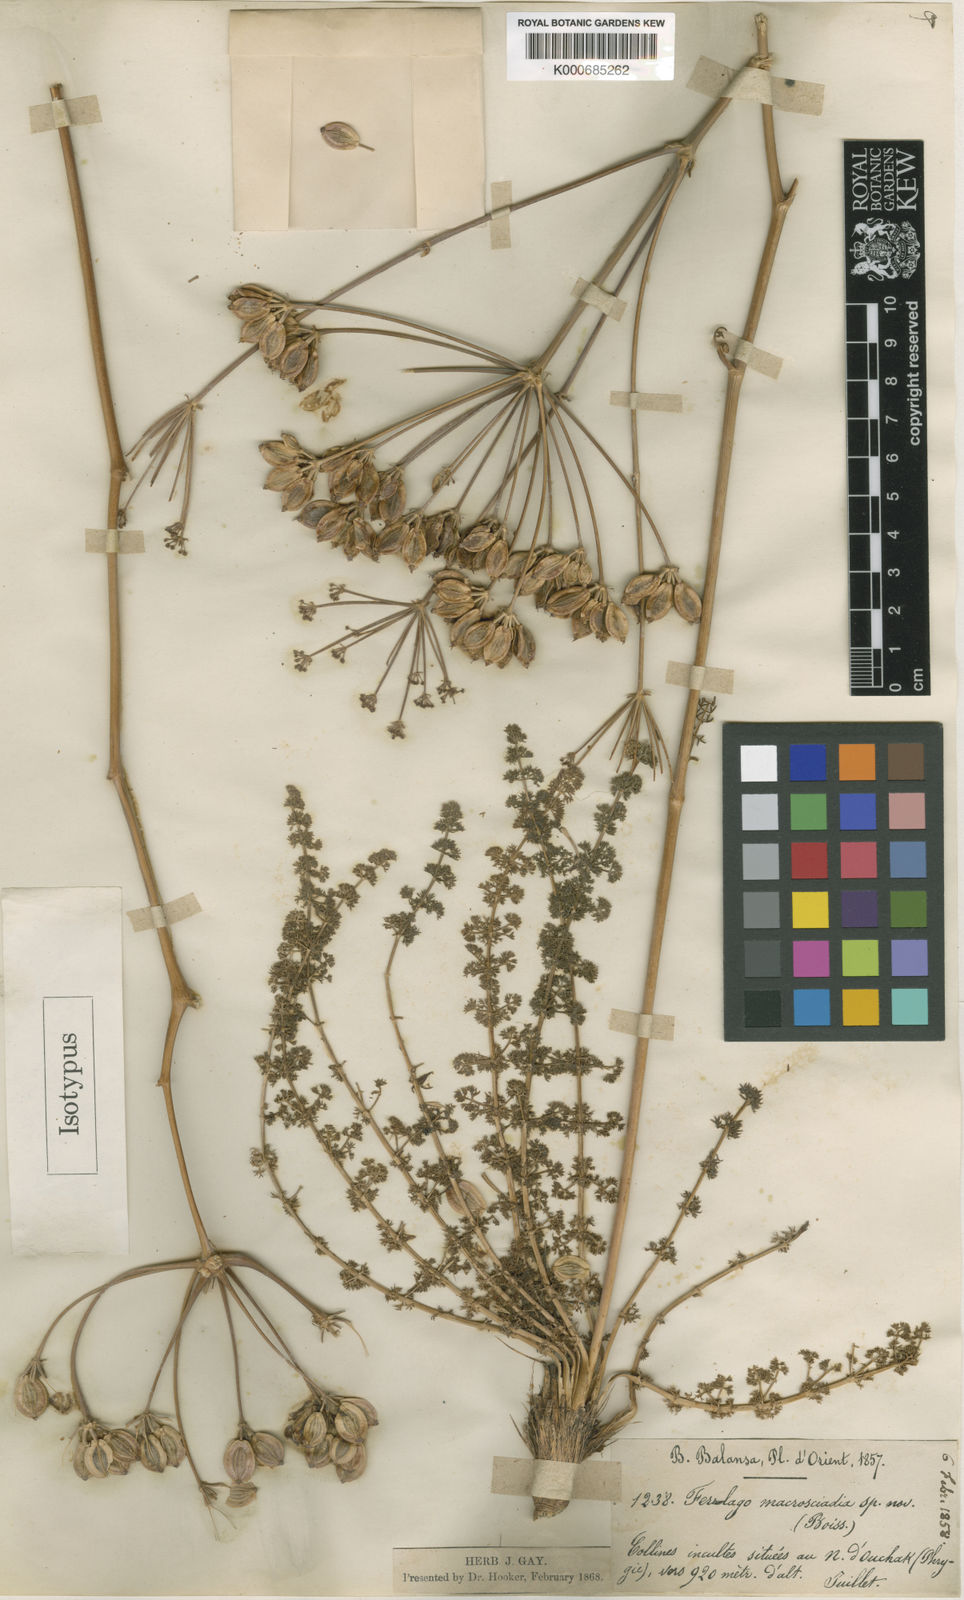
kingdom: Plantae
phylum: Tracheophyta
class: Magnoliopsida
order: Apiales
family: Apiaceae
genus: Ferulago
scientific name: Ferulago macrosciadea
